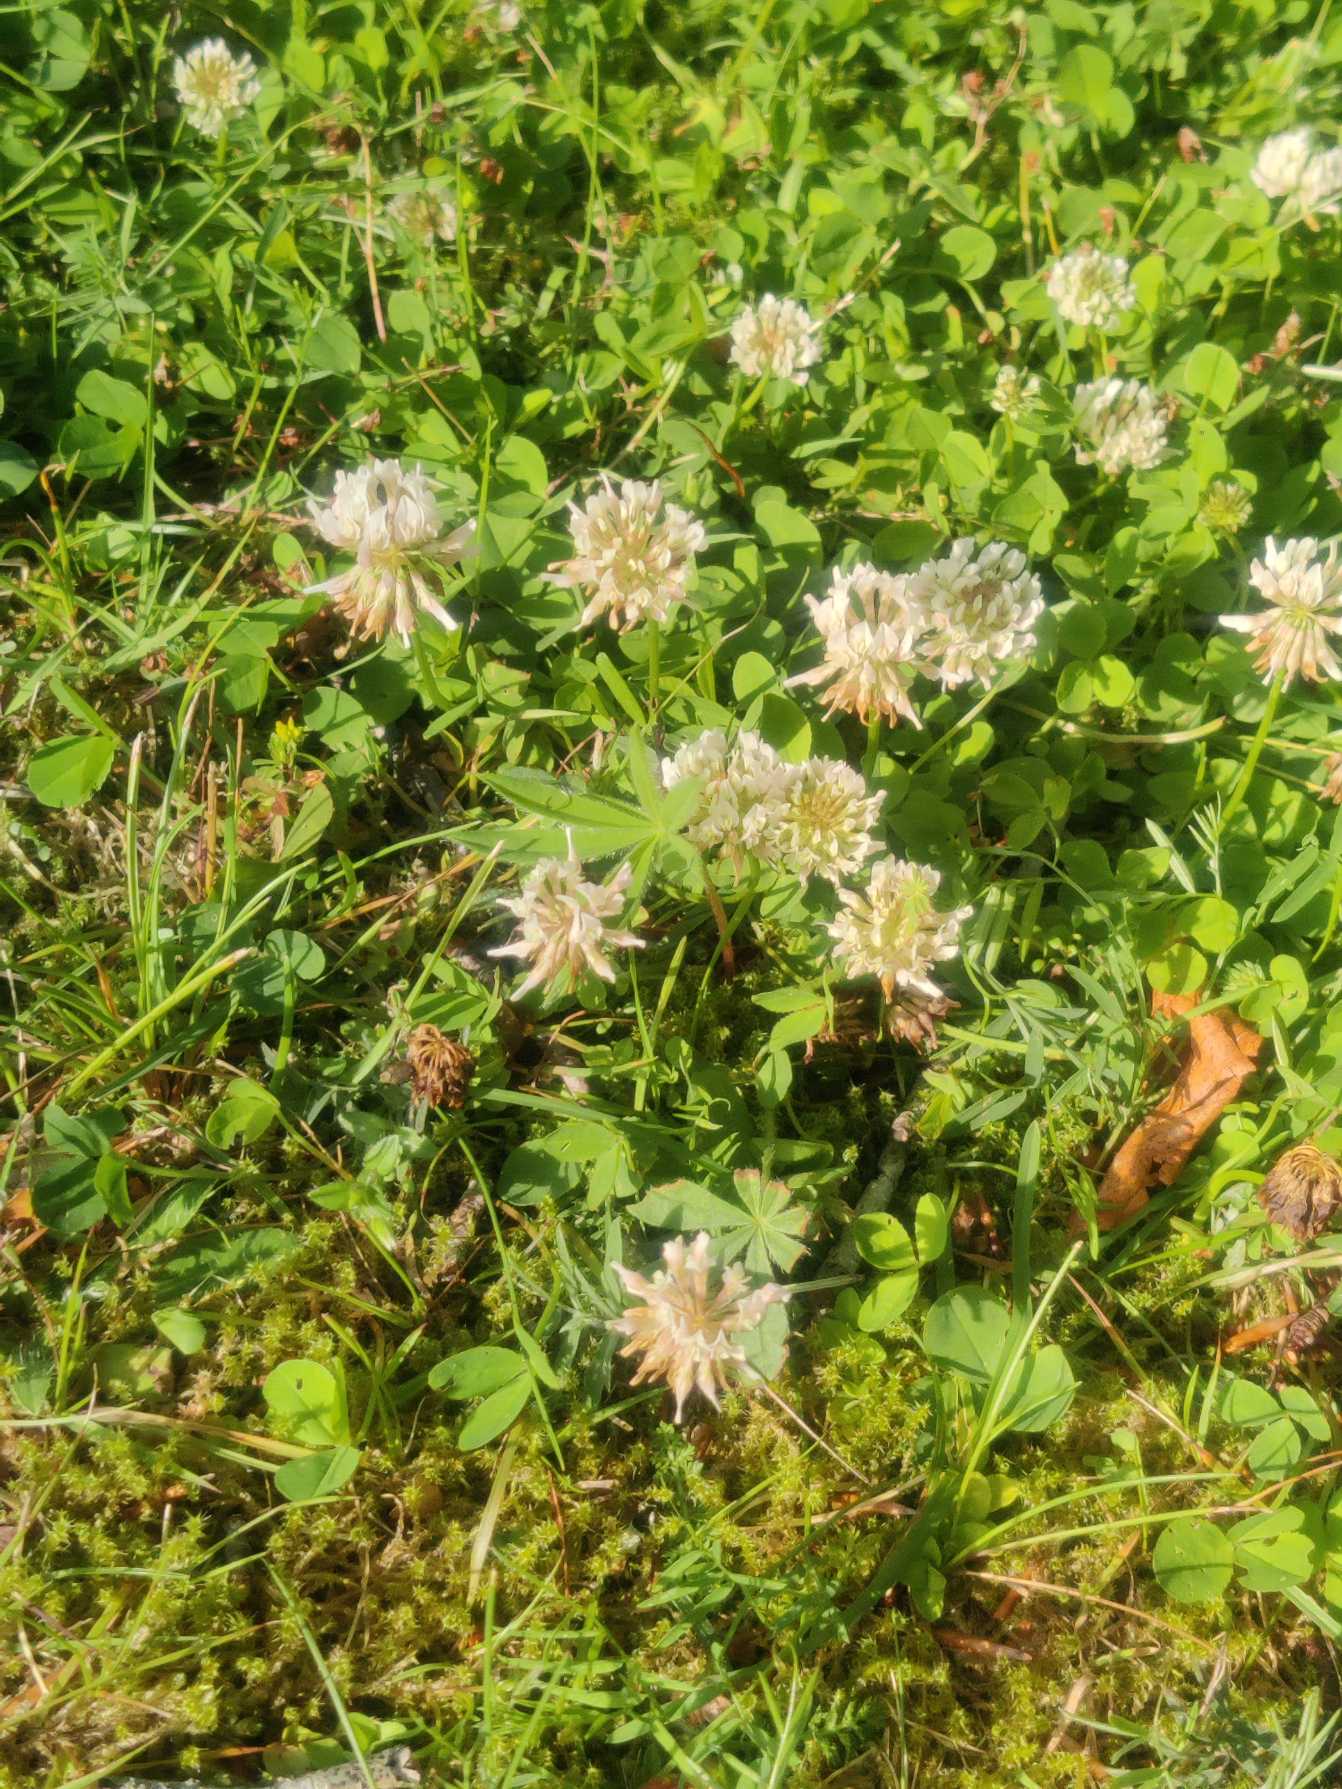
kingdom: Plantae
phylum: Tracheophyta
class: Magnoliopsida
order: Fabales
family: Fabaceae
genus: Trifolium
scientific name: Trifolium repens
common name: Hvid-kløver
